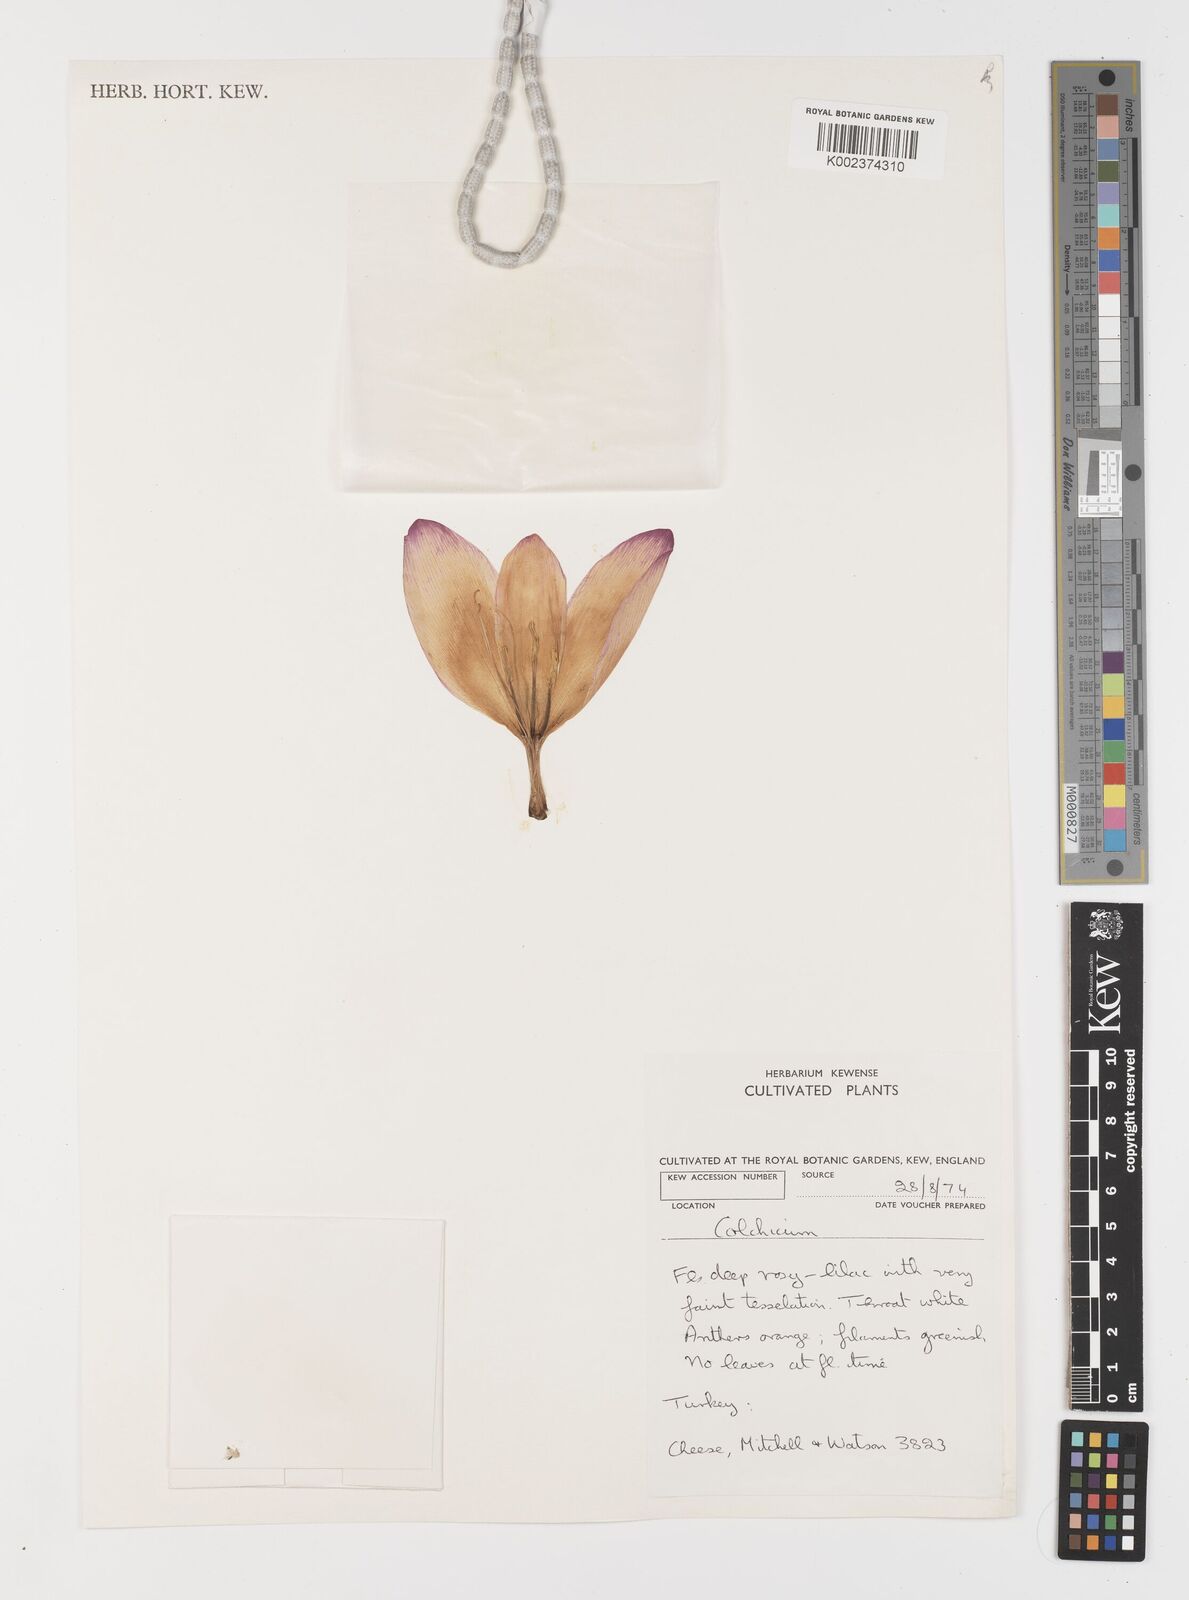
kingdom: Plantae
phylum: Tracheophyta
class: Liliopsida
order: Liliales
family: Colchicaceae
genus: Colchicum
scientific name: Colchicum
